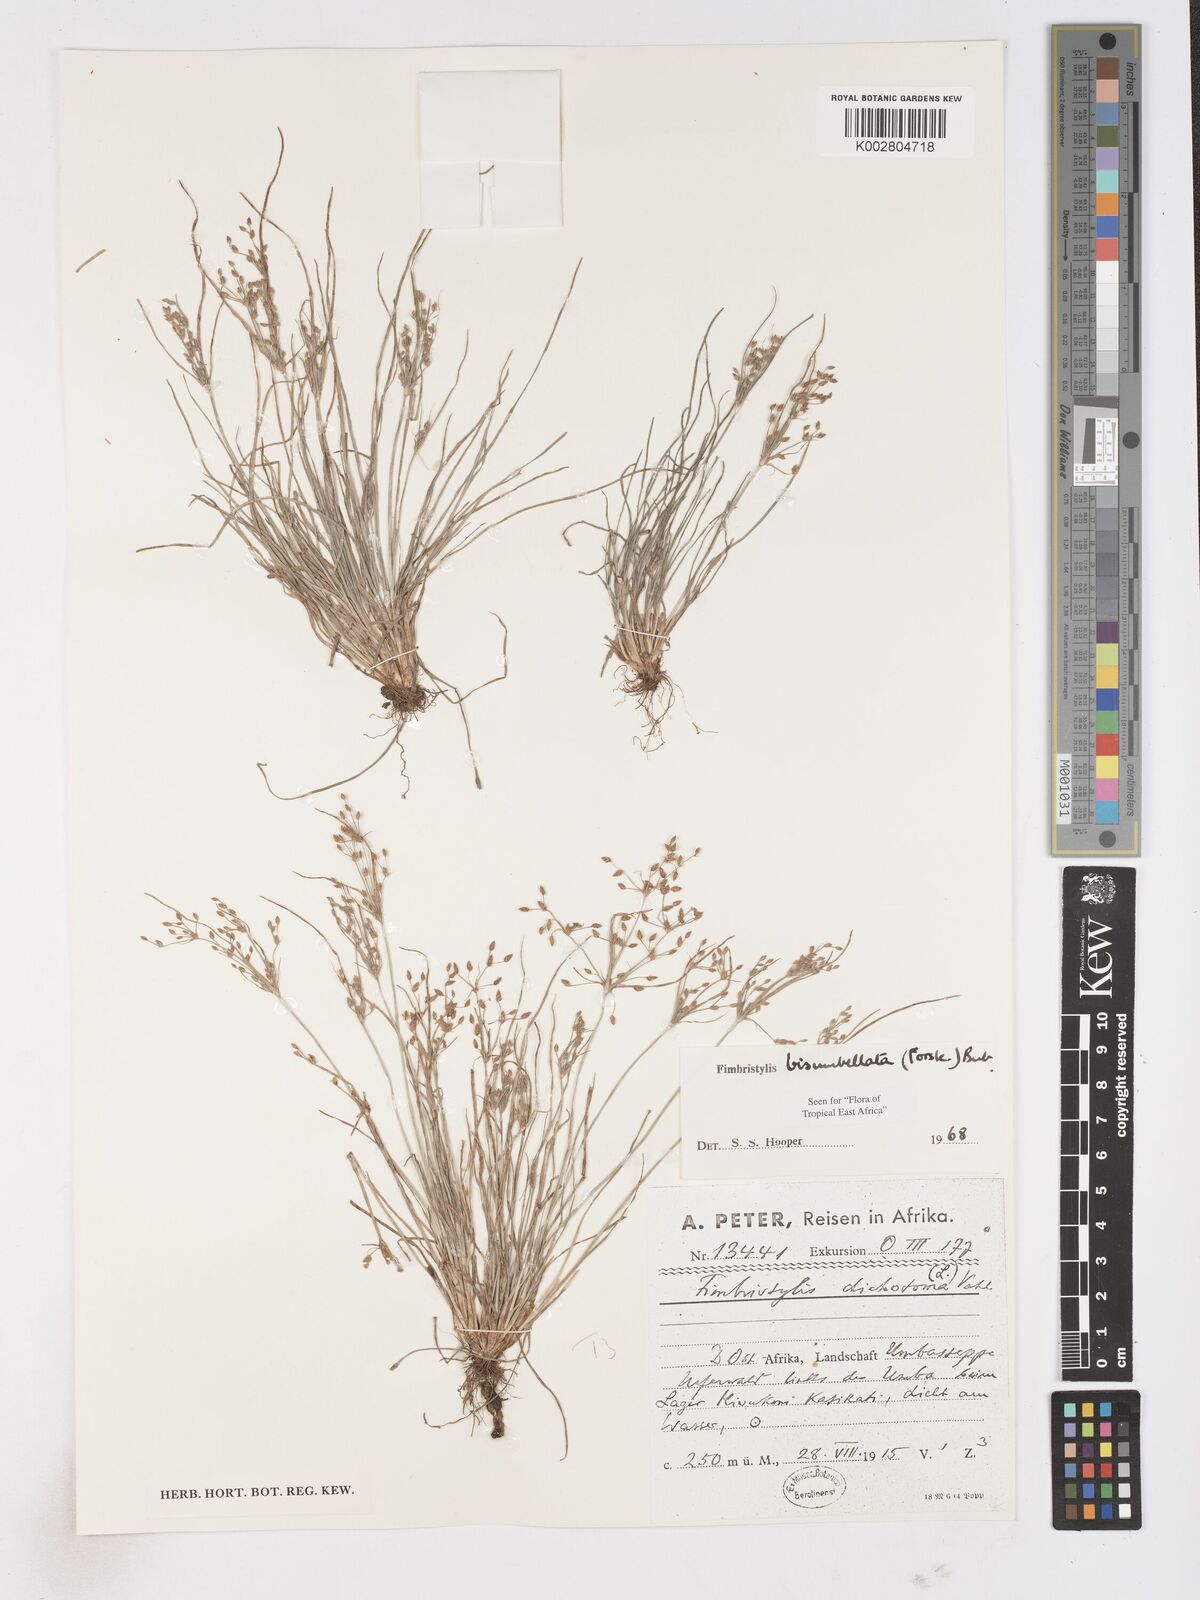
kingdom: Plantae
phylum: Tracheophyta
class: Liliopsida
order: Poales
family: Cyperaceae
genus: Fimbristylis
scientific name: Fimbristylis bisumbellata
